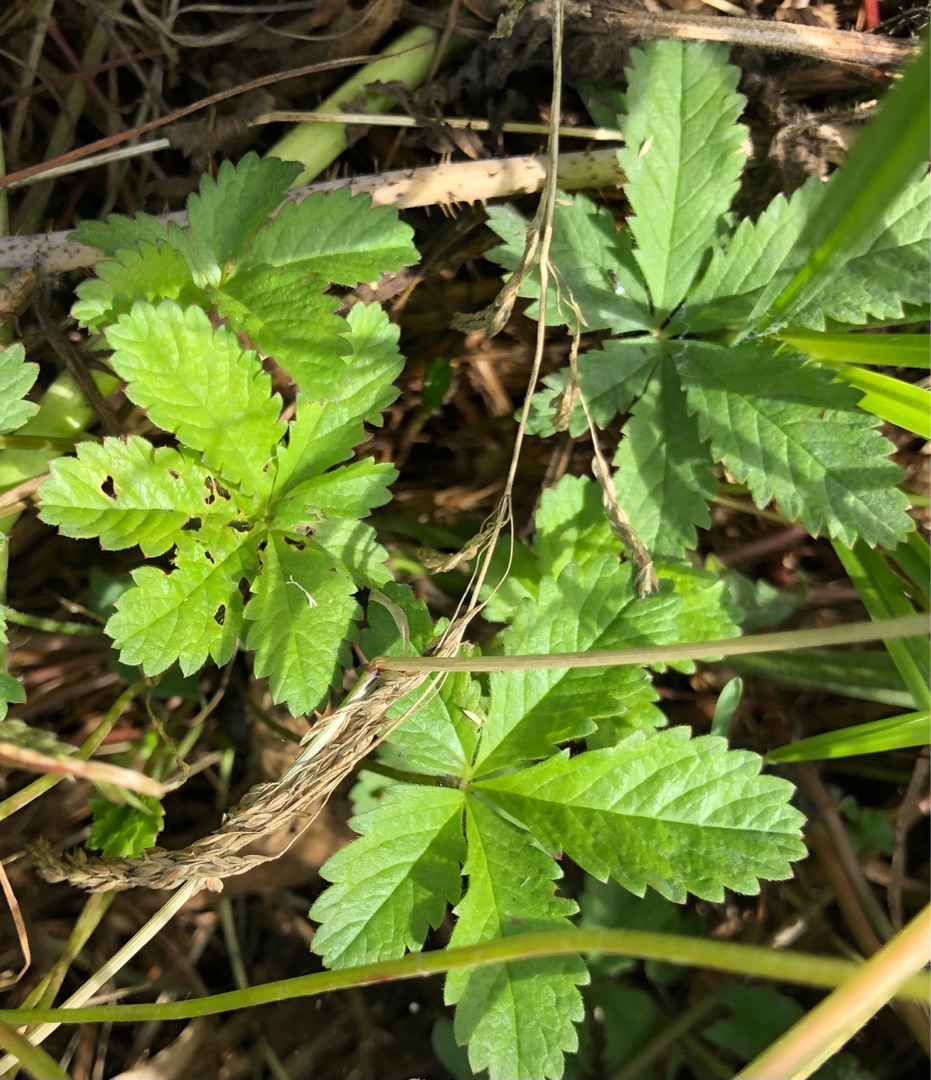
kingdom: Plantae
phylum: Tracheophyta
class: Magnoliopsida
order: Rosales
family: Rosaceae
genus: Potentilla
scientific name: Potentilla reptans
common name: Krybende potentil
